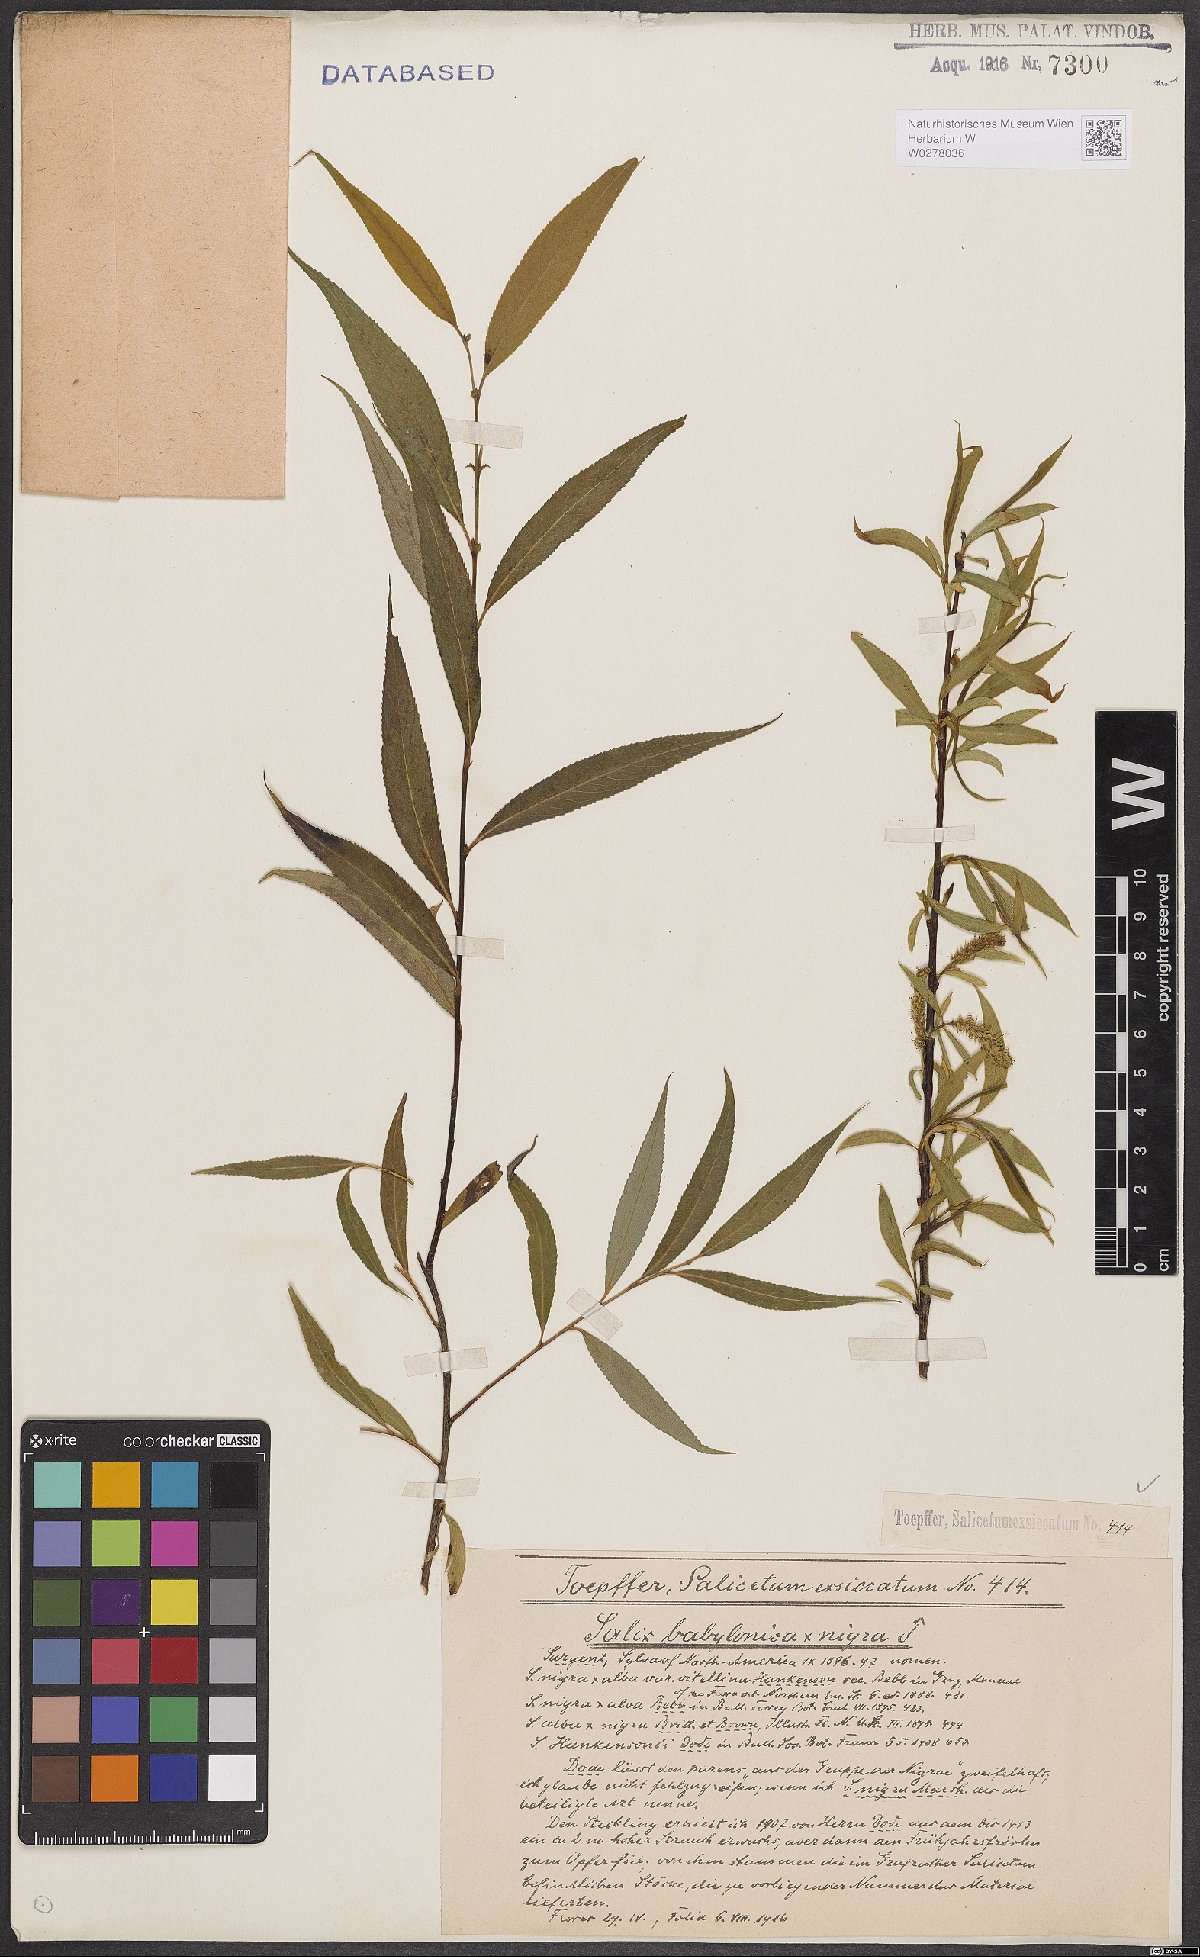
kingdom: Plantae
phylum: Tracheophyta
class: Magnoliopsida
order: Malpighiales
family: Salicaceae
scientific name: Salicaceae
